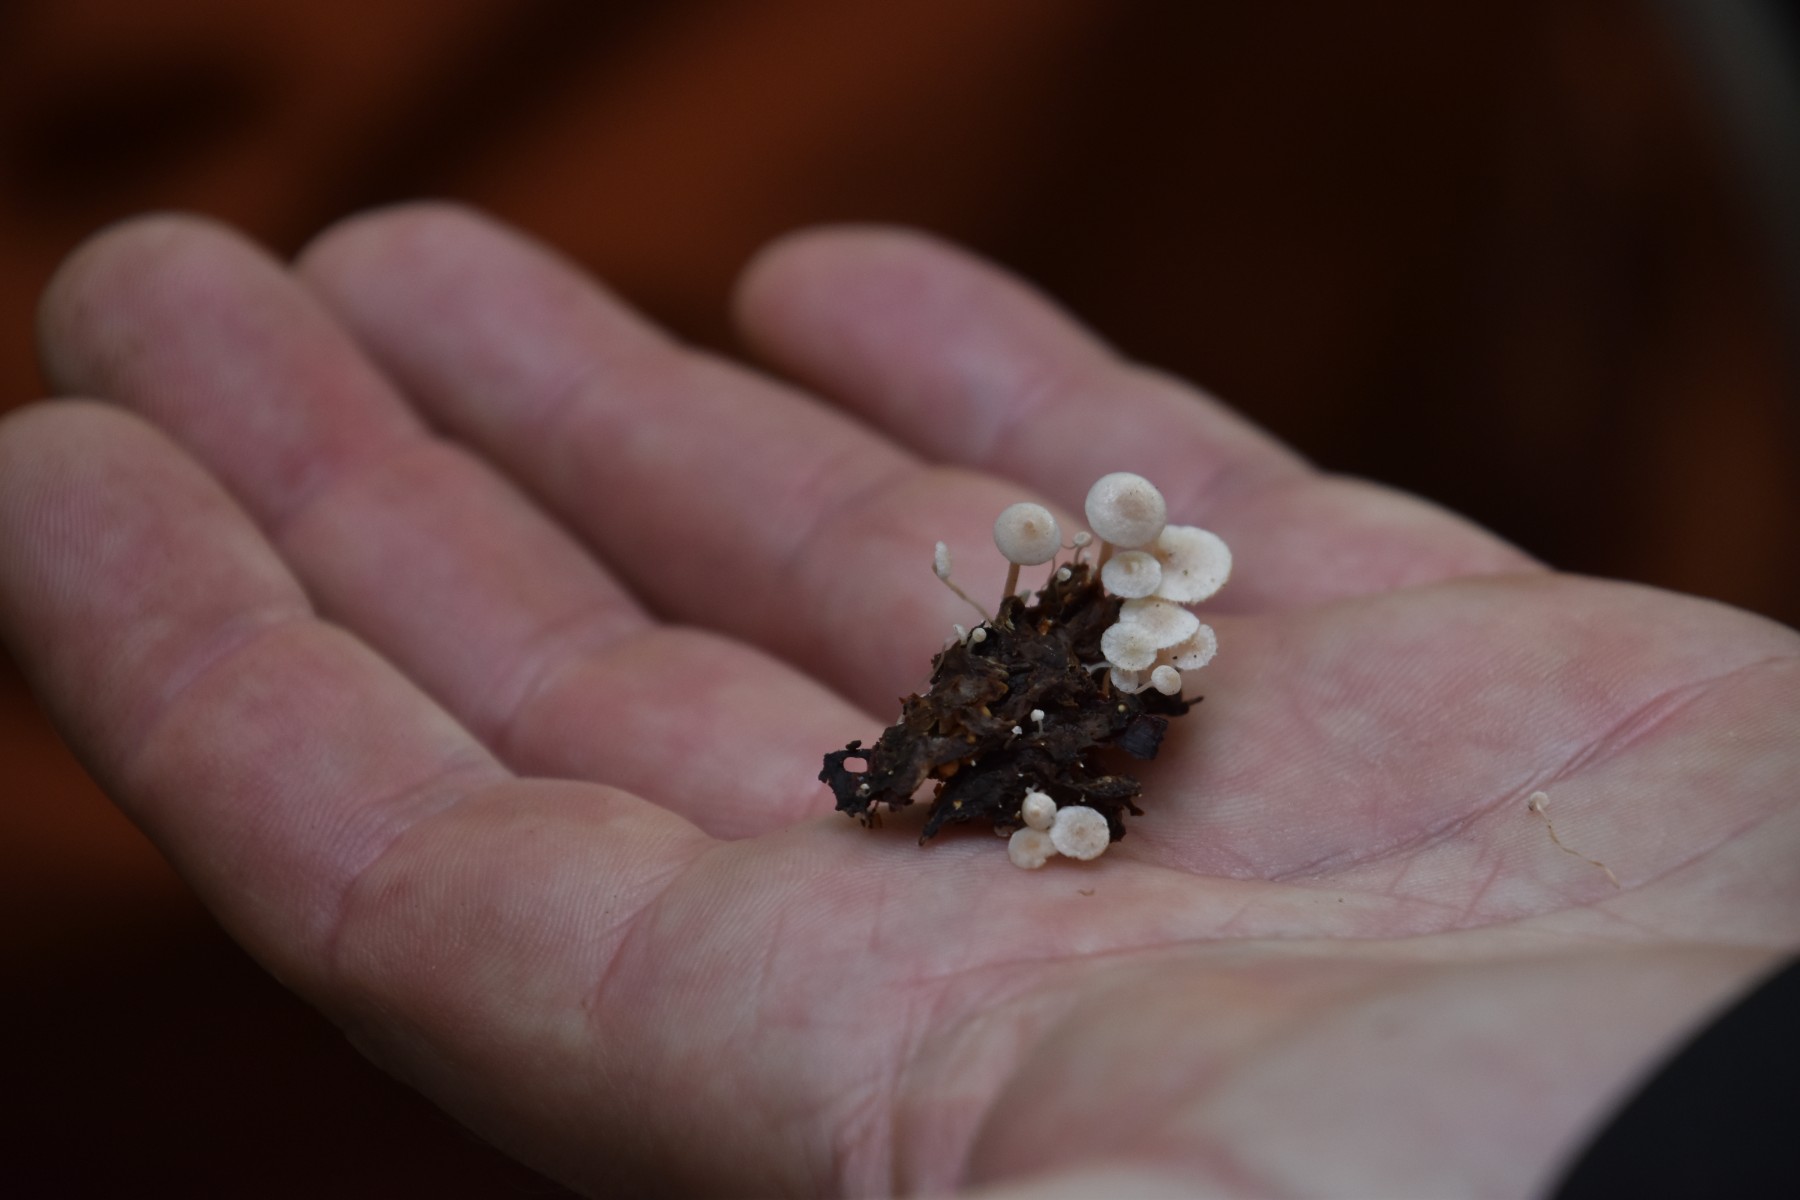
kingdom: Fungi
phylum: Basidiomycota
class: Agaricomycetes
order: Agaricales
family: Tricholomataceae
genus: Collybia
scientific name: Collybia cookei
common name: gulknoldet lighat
